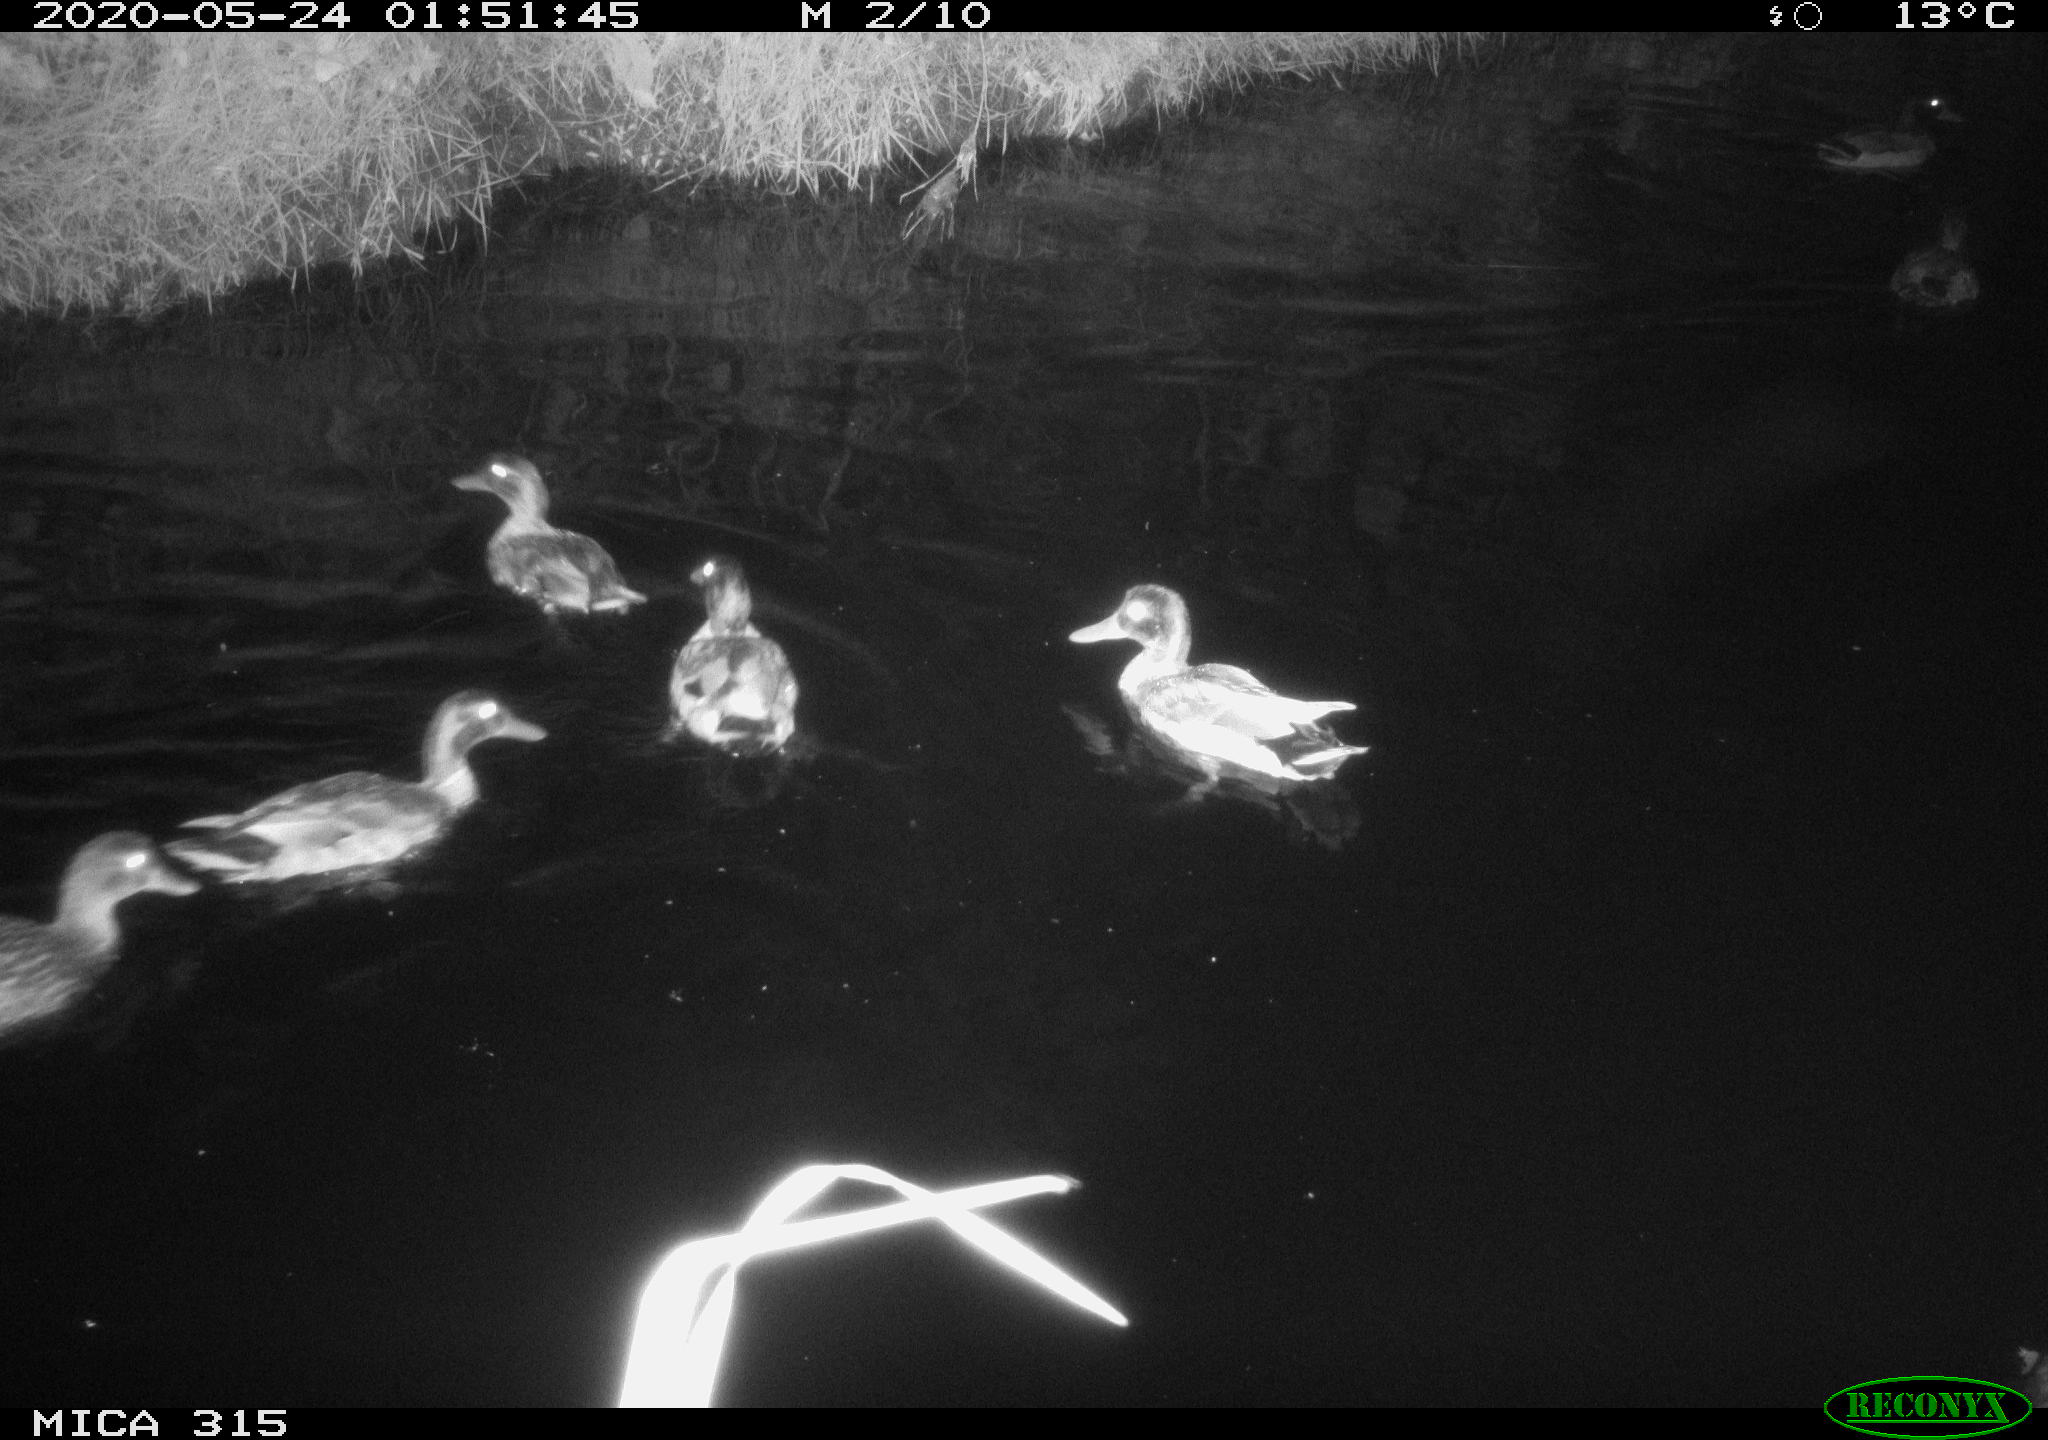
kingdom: Animalia
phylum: Chordata
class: Aves
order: Anseriformes
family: Anatidae
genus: Anas
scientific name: Anas platyrhynchos
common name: Mallard
